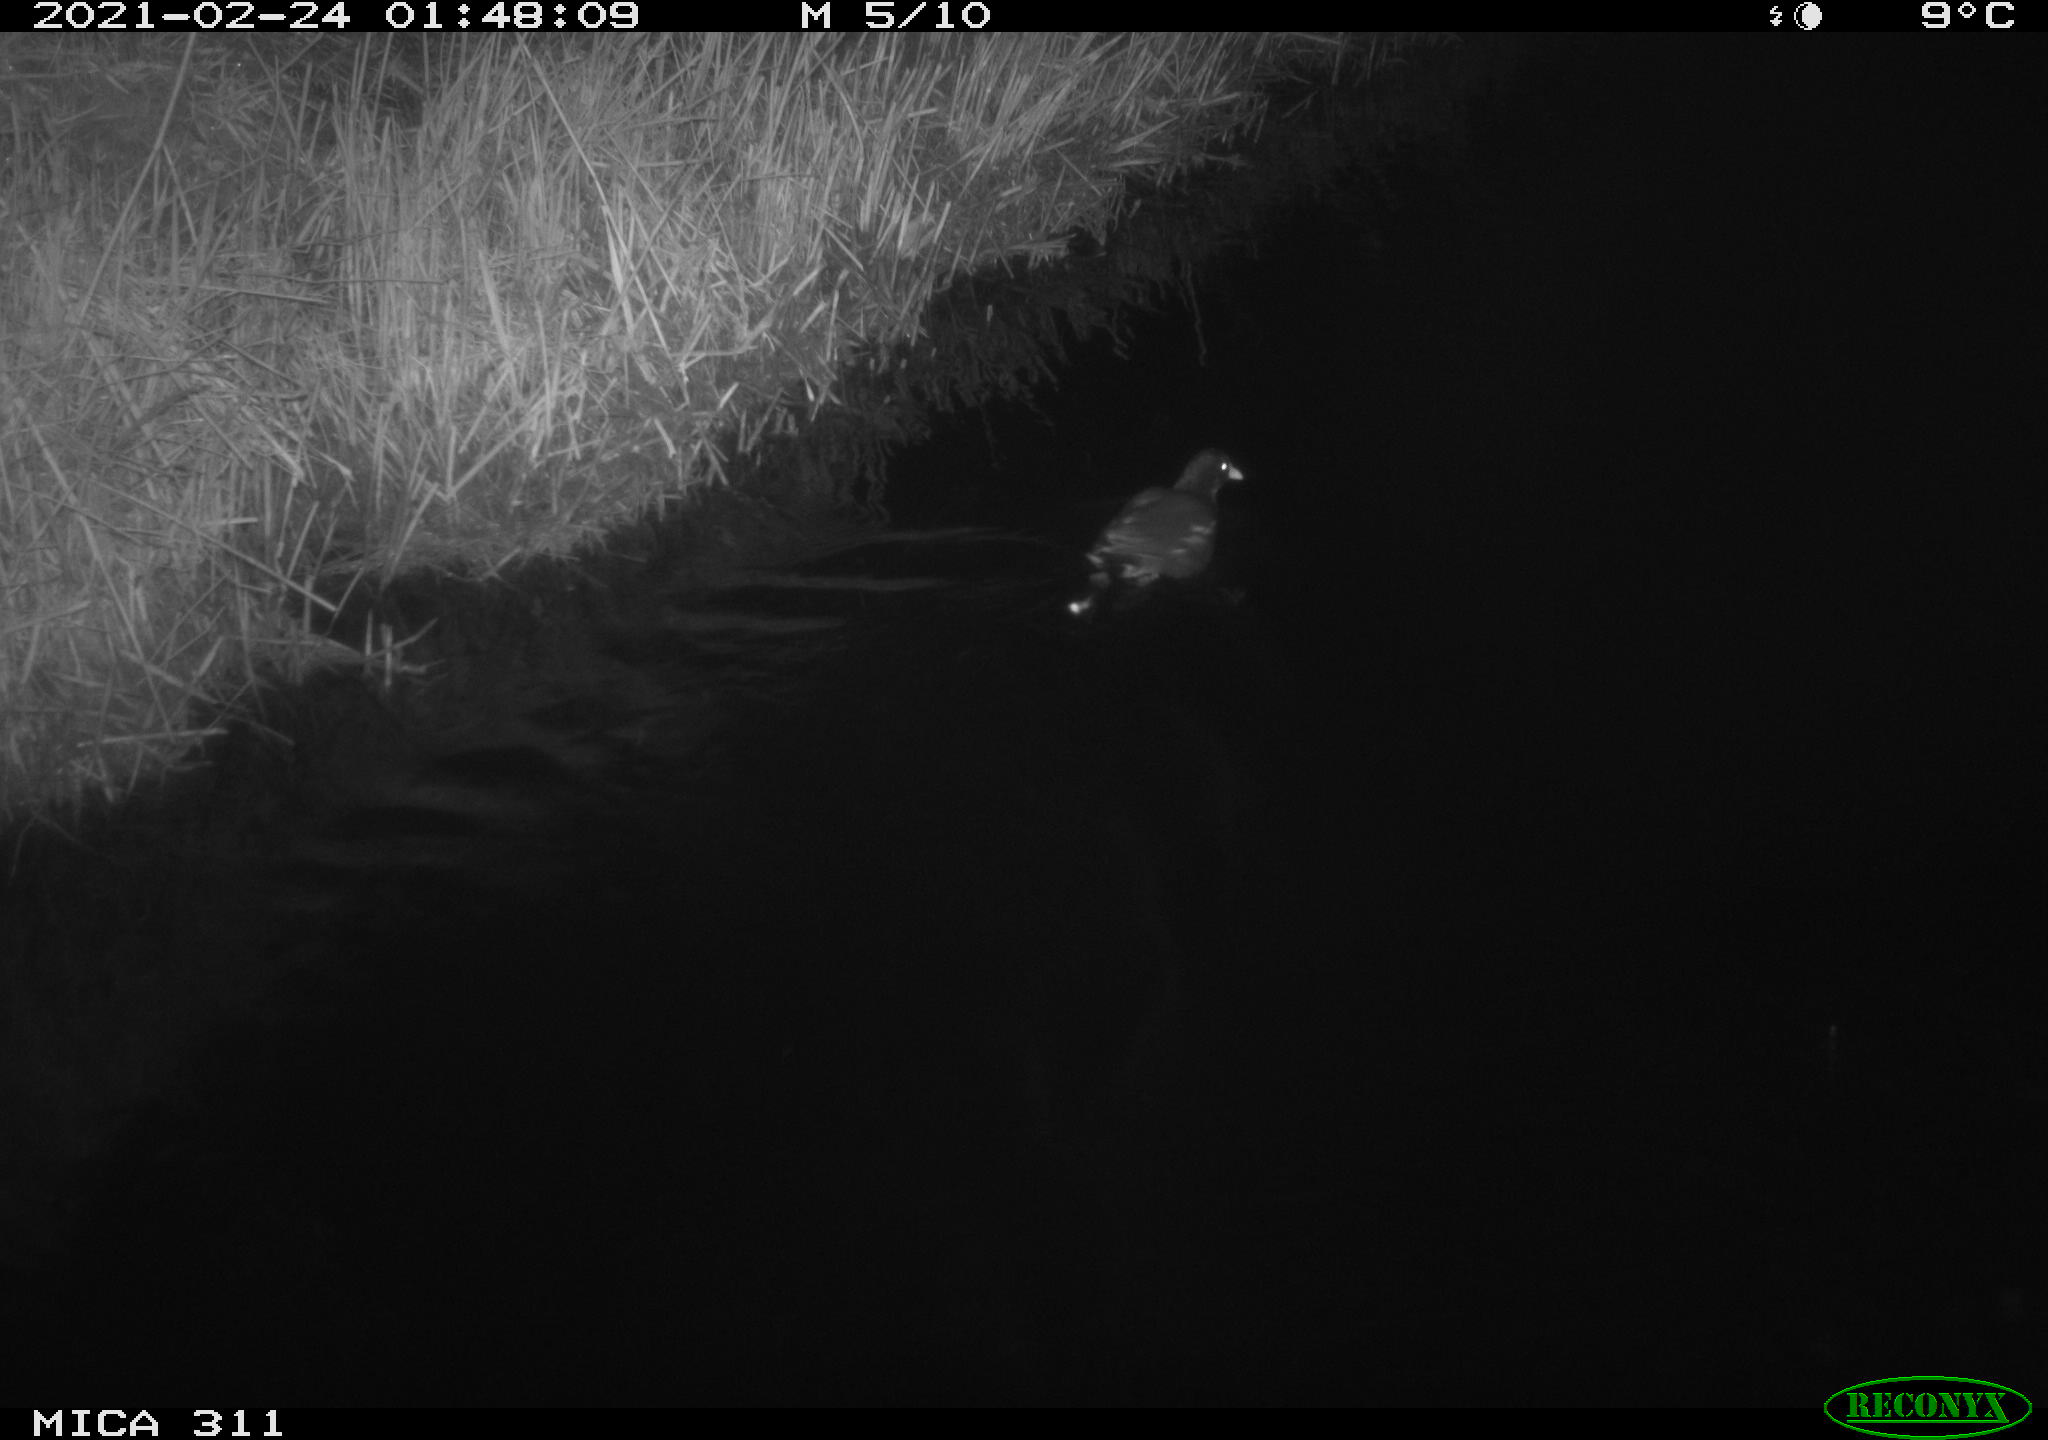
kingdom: Animalia
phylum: Chordata
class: Aves
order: Gruiformes
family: Rallidae
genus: Gallinula
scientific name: Gallinula chloropus
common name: Common moorhen
